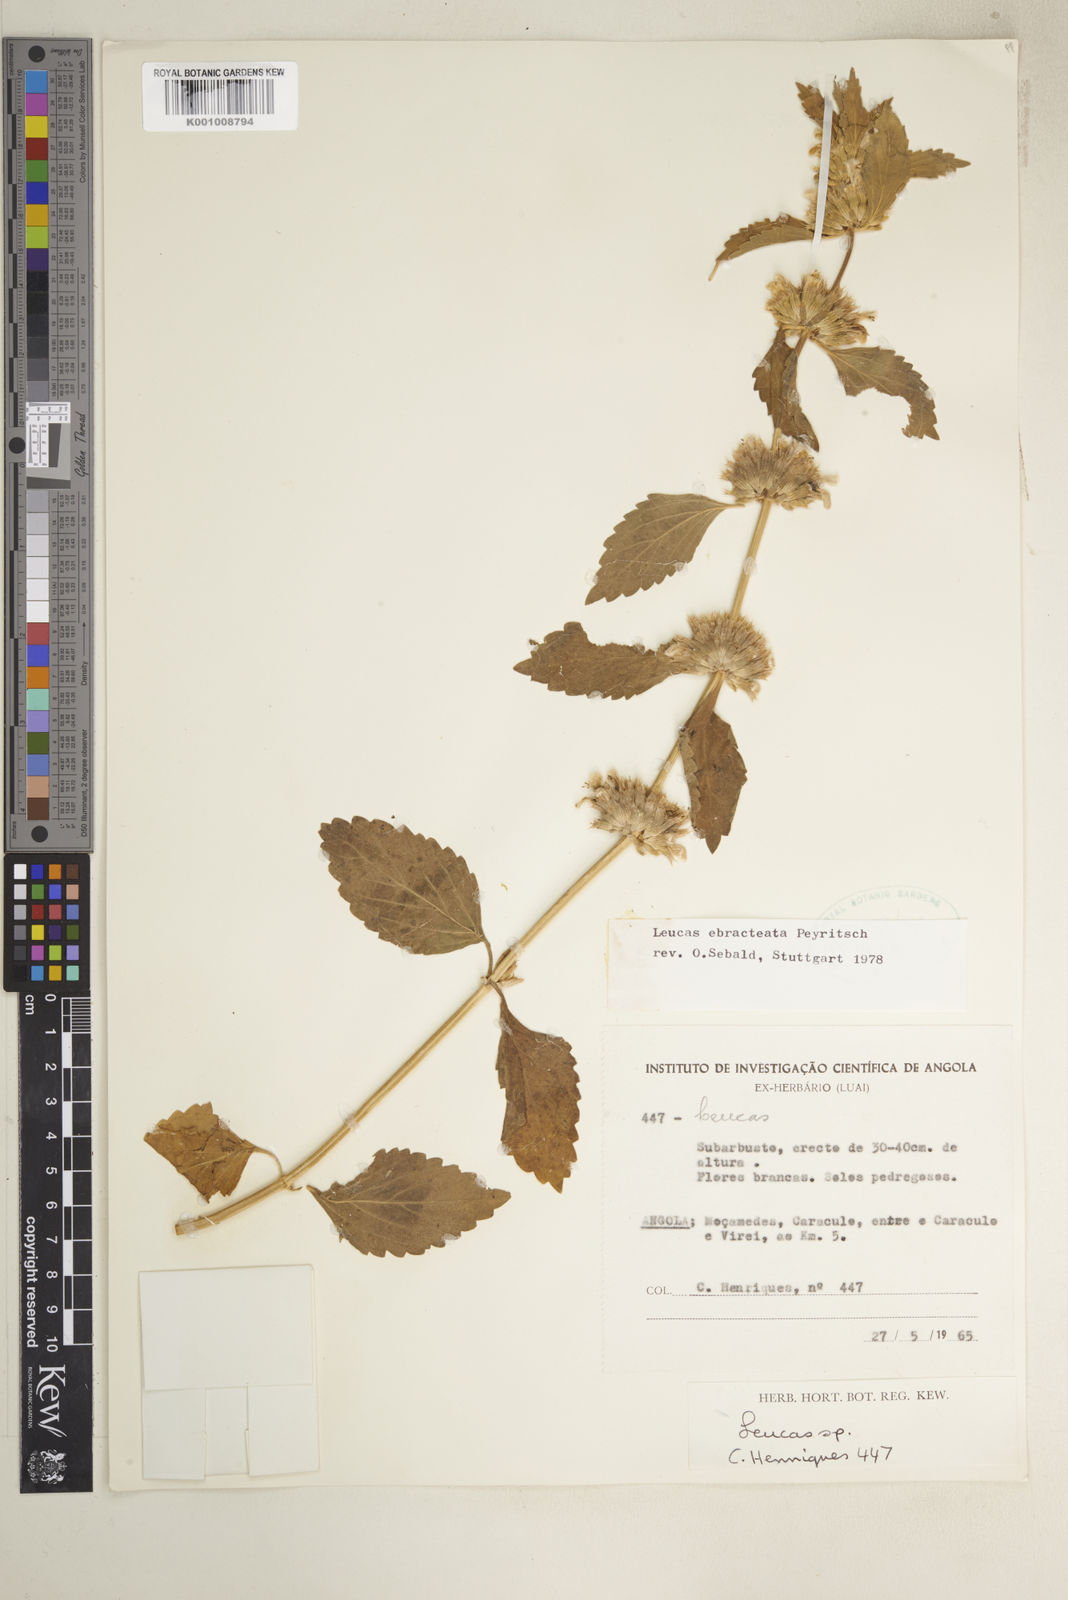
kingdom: Plantae
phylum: Tracheophyta
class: Magnoliopsida
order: Lamiales
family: Lamiaceae
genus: Leucas
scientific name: Leucas ebracteata
